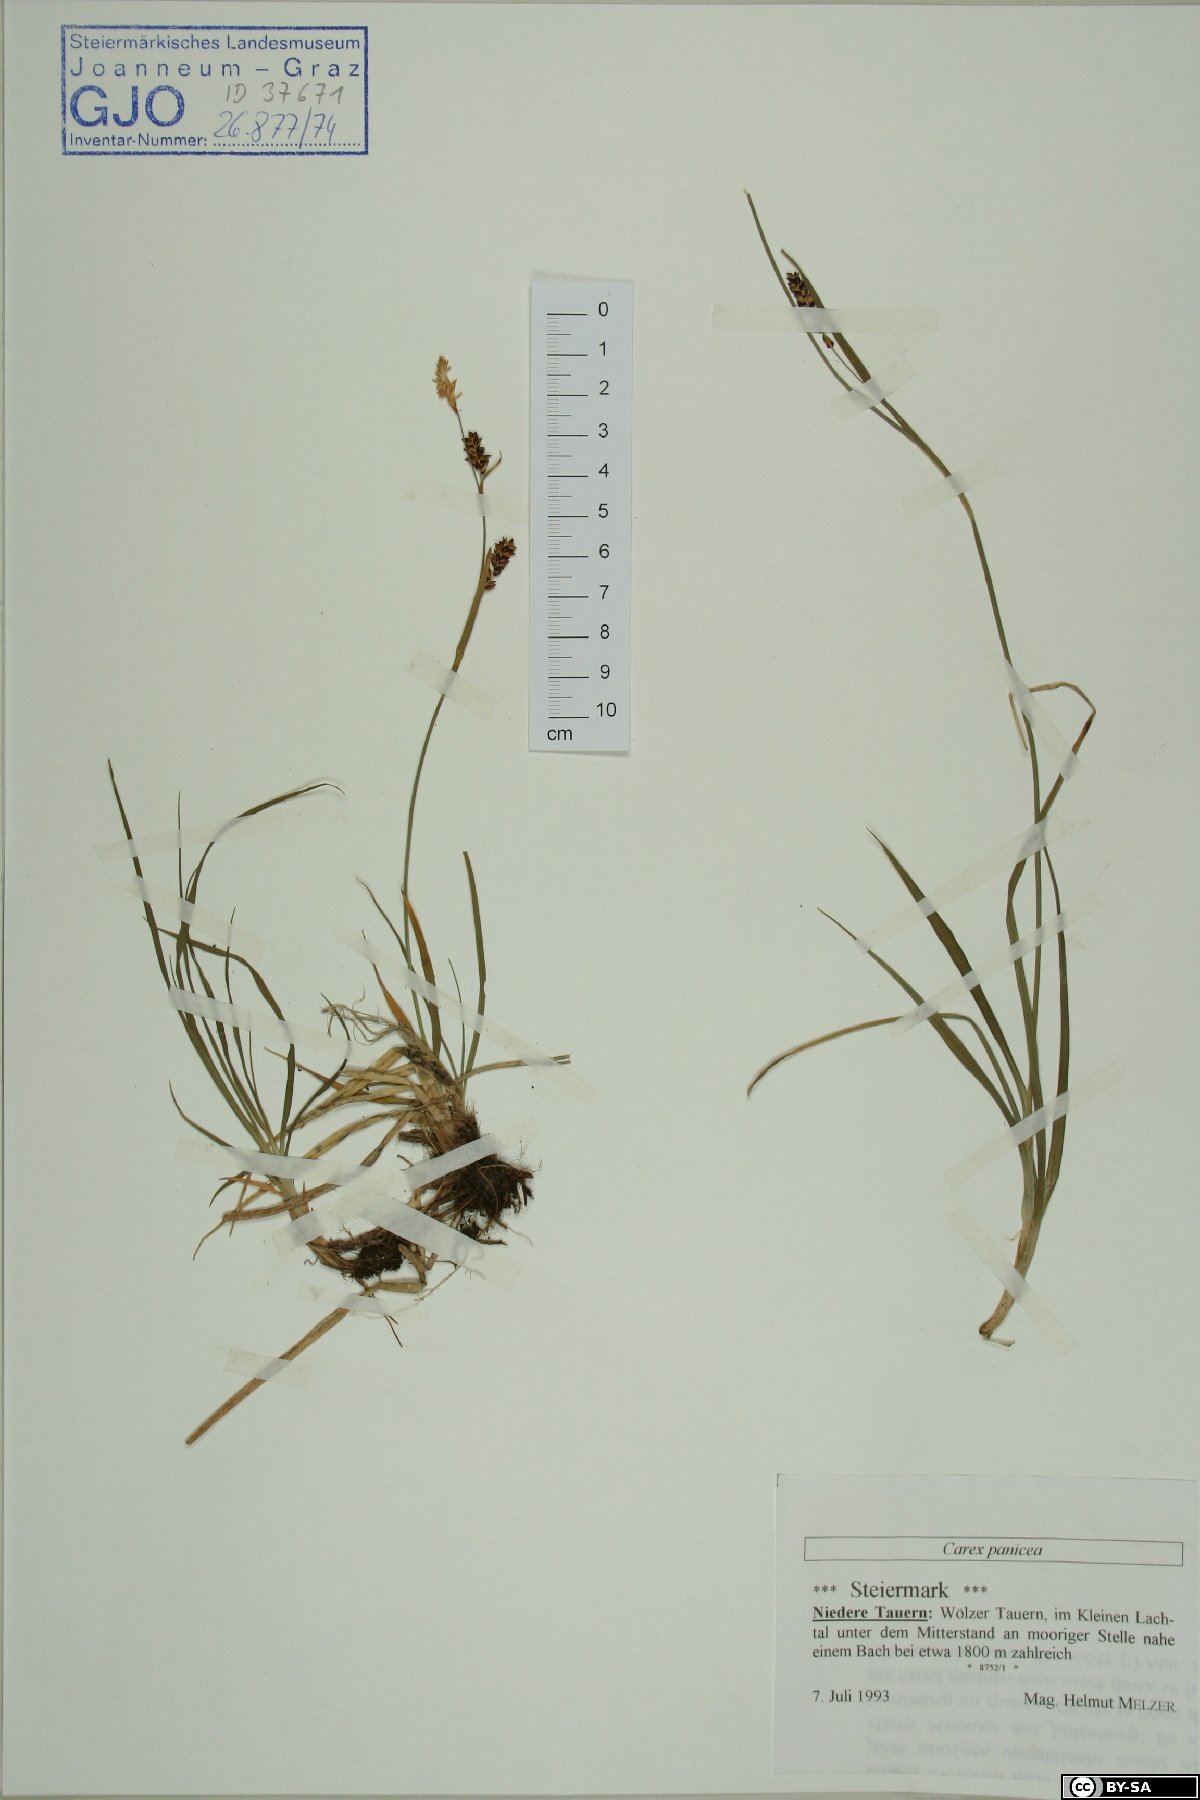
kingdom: Plantae
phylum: Tracheophyta
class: Liliopsida
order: Poales
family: Cyperaceae
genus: Carex
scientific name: Carex panicea
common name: Carnation sedge
